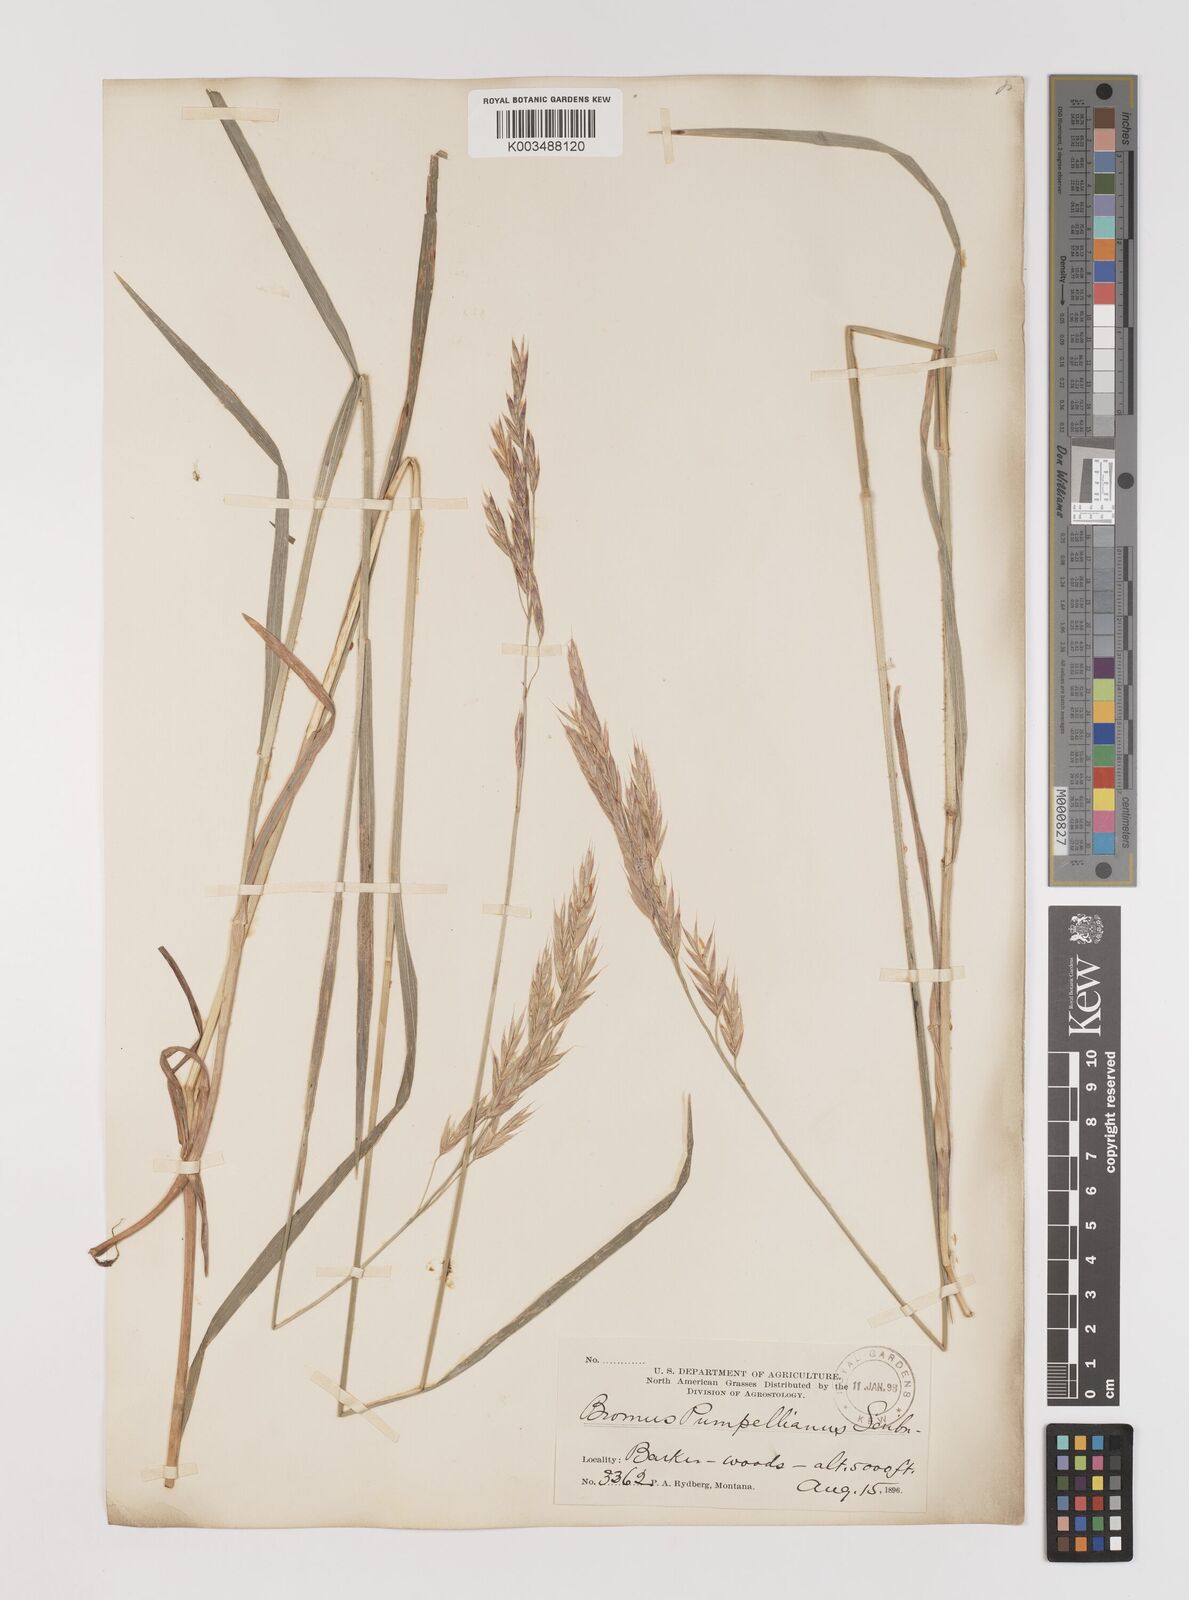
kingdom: Plantae
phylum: Tracheophyta
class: Liliopsida
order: Poales
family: Poaceae
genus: Bromus
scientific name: Bromus pumpellianus
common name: Pumpelly's brome
